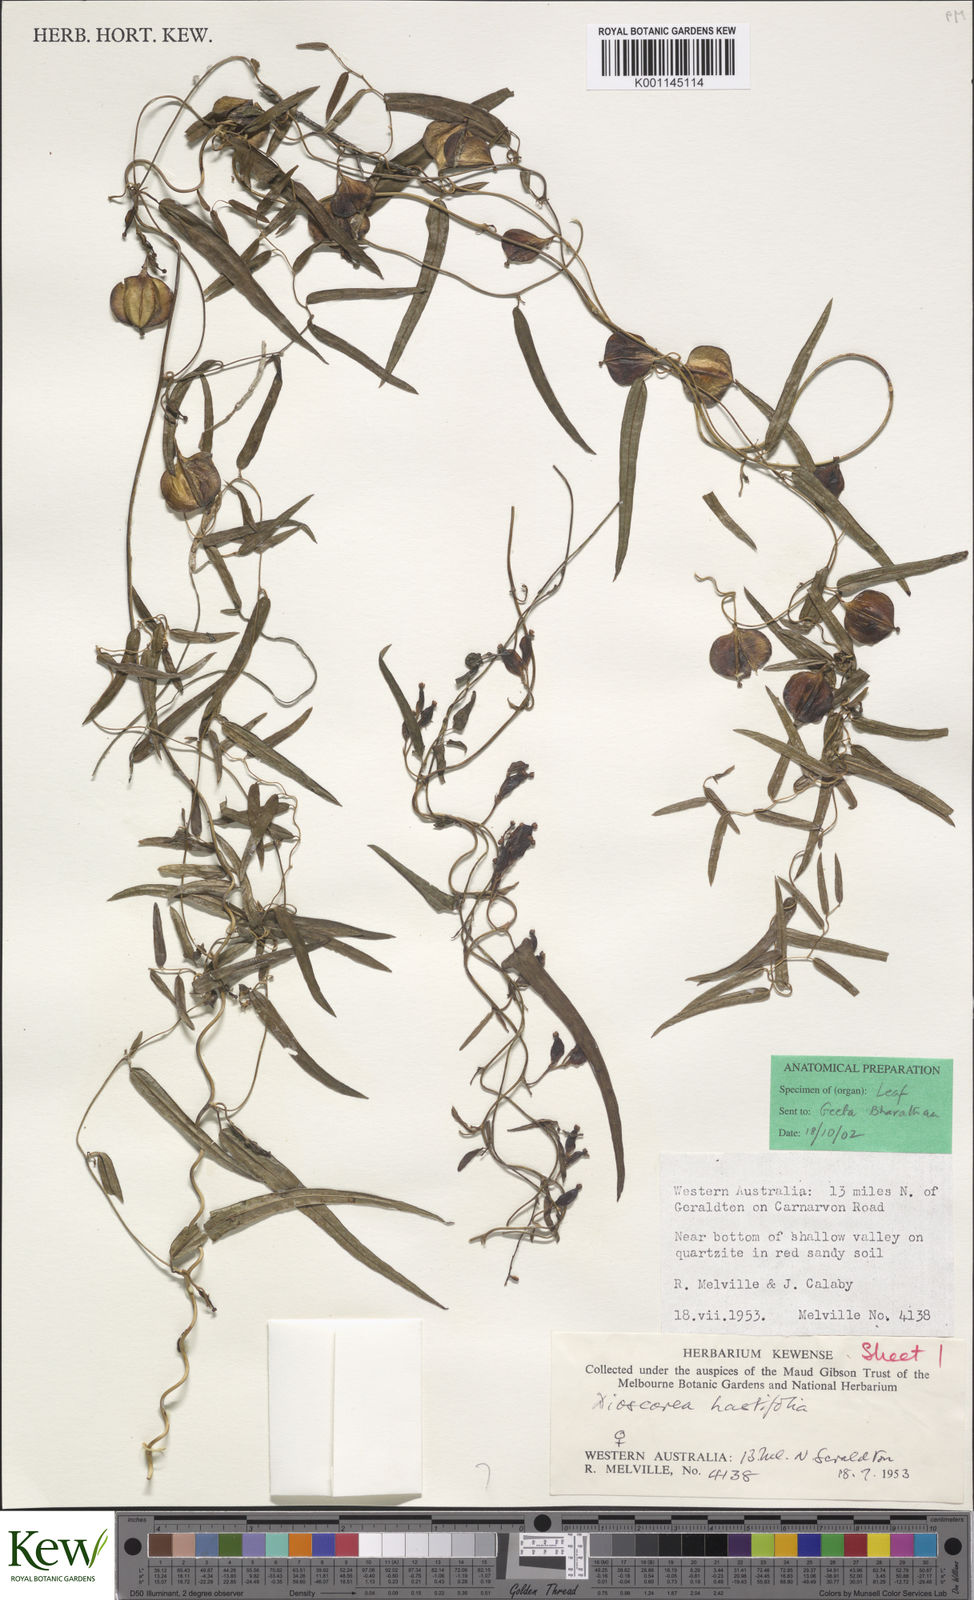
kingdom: Plantae
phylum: Tracheophyta
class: Liliopsida
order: Dioscoreales
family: Dioscoreaceae
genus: Dioscorea
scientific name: Dioscorea hastifolia
